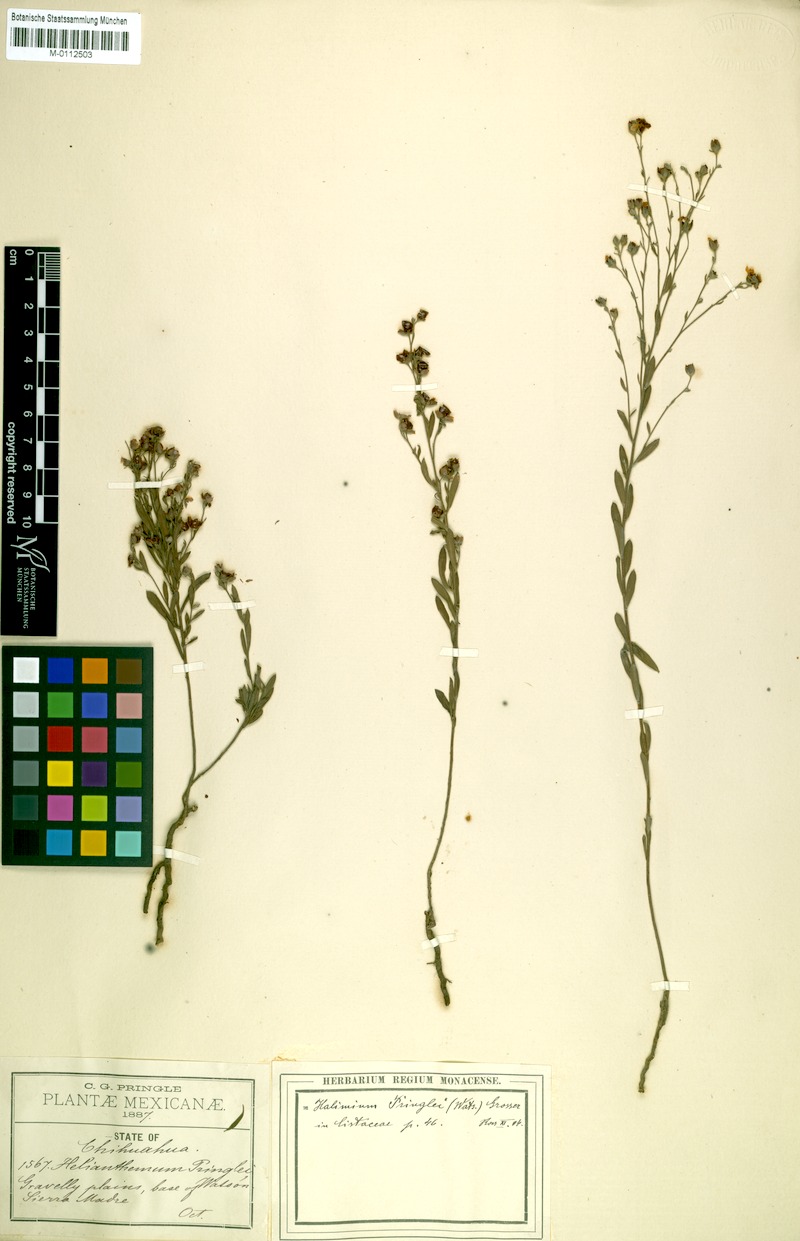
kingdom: Plantae
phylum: Tracheophyta
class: Magnoliopsida
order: Malvales
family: Cistaceae
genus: Crocanthemum
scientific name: Crocanthemum pringlei
